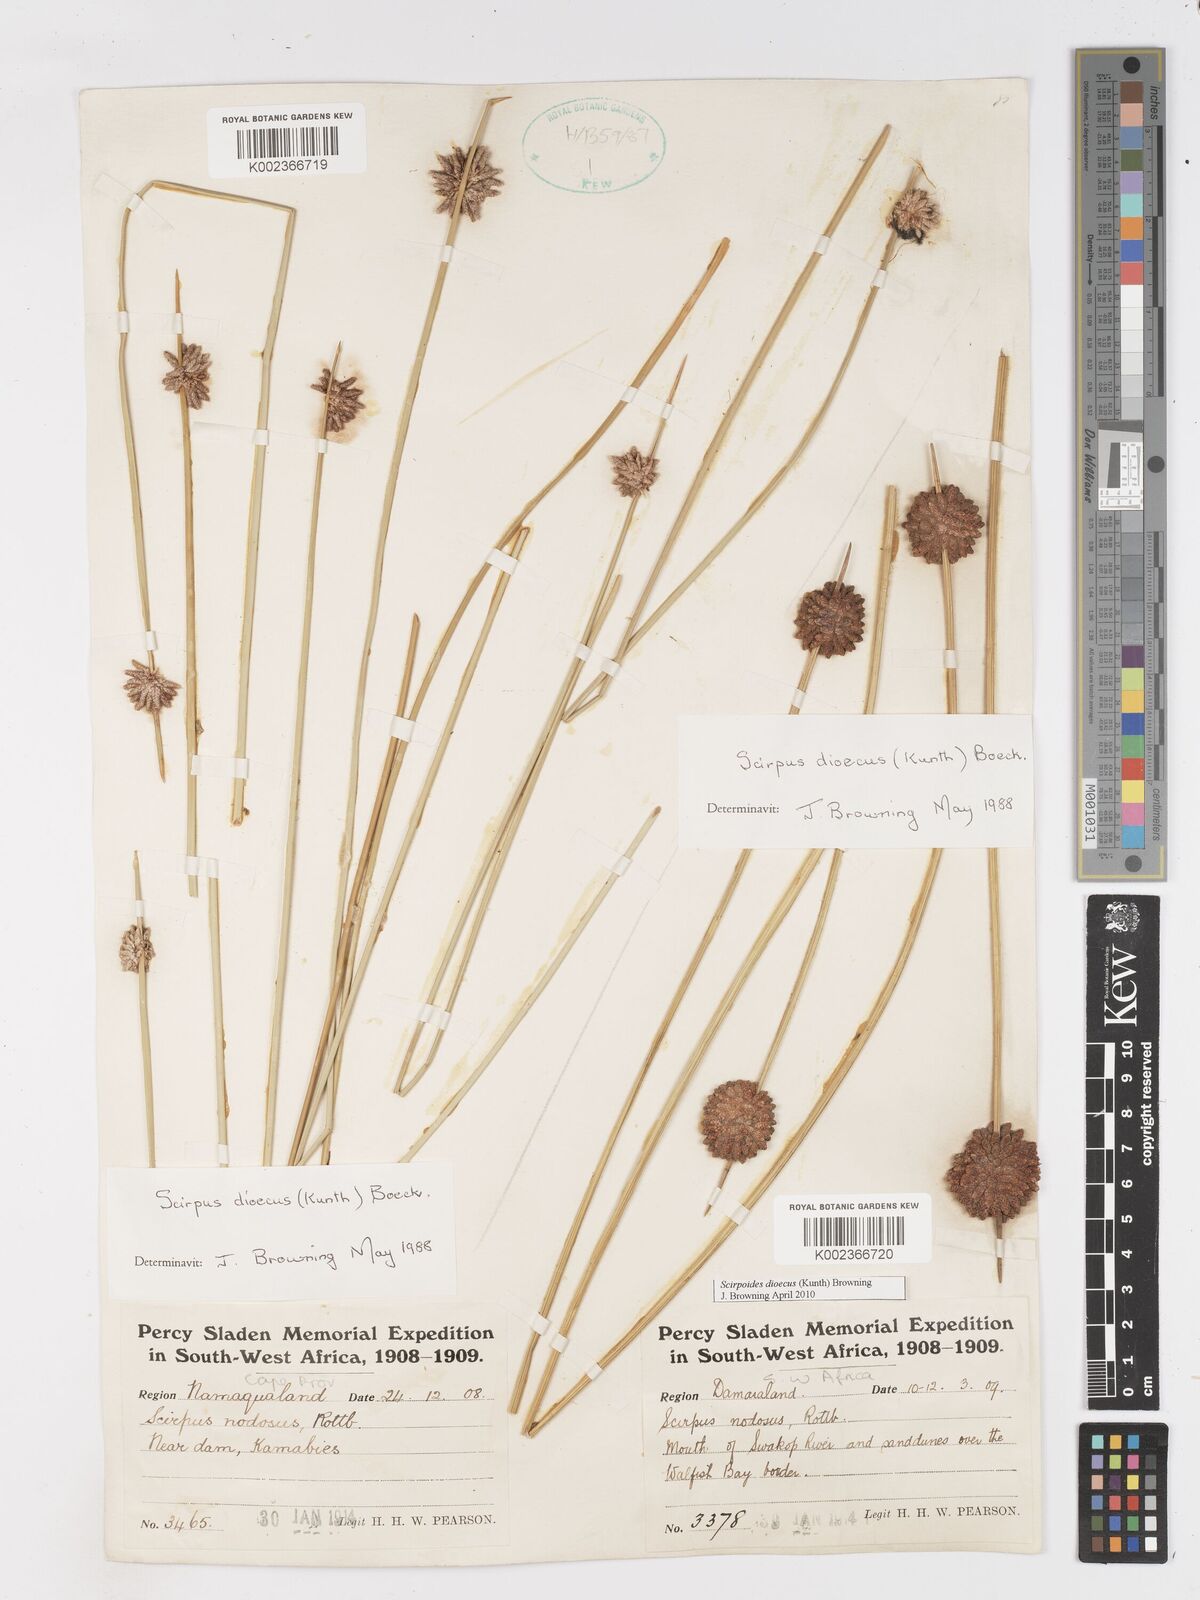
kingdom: Plantae
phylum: Tracheophyta
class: Liliopsida
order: Poales
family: Cyperaceae
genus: Scirpoides
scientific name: Scirpoides
